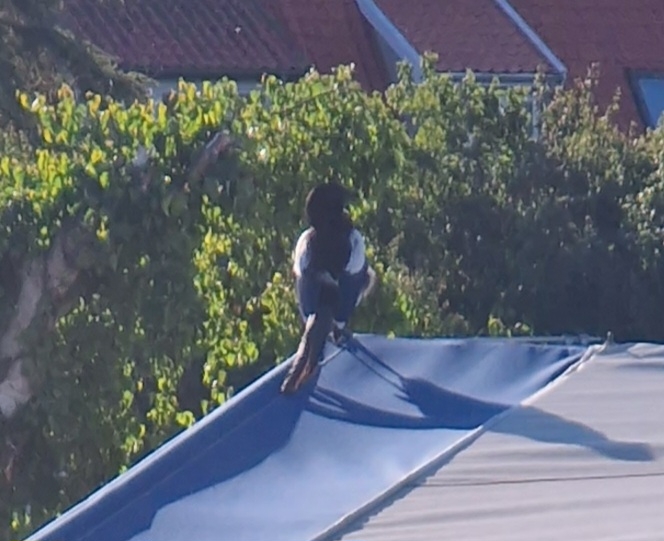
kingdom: Animalia
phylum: Chordata
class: Aves
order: Passeriformes
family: Corvidae
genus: Pica
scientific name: Pica pica
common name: Husskade
